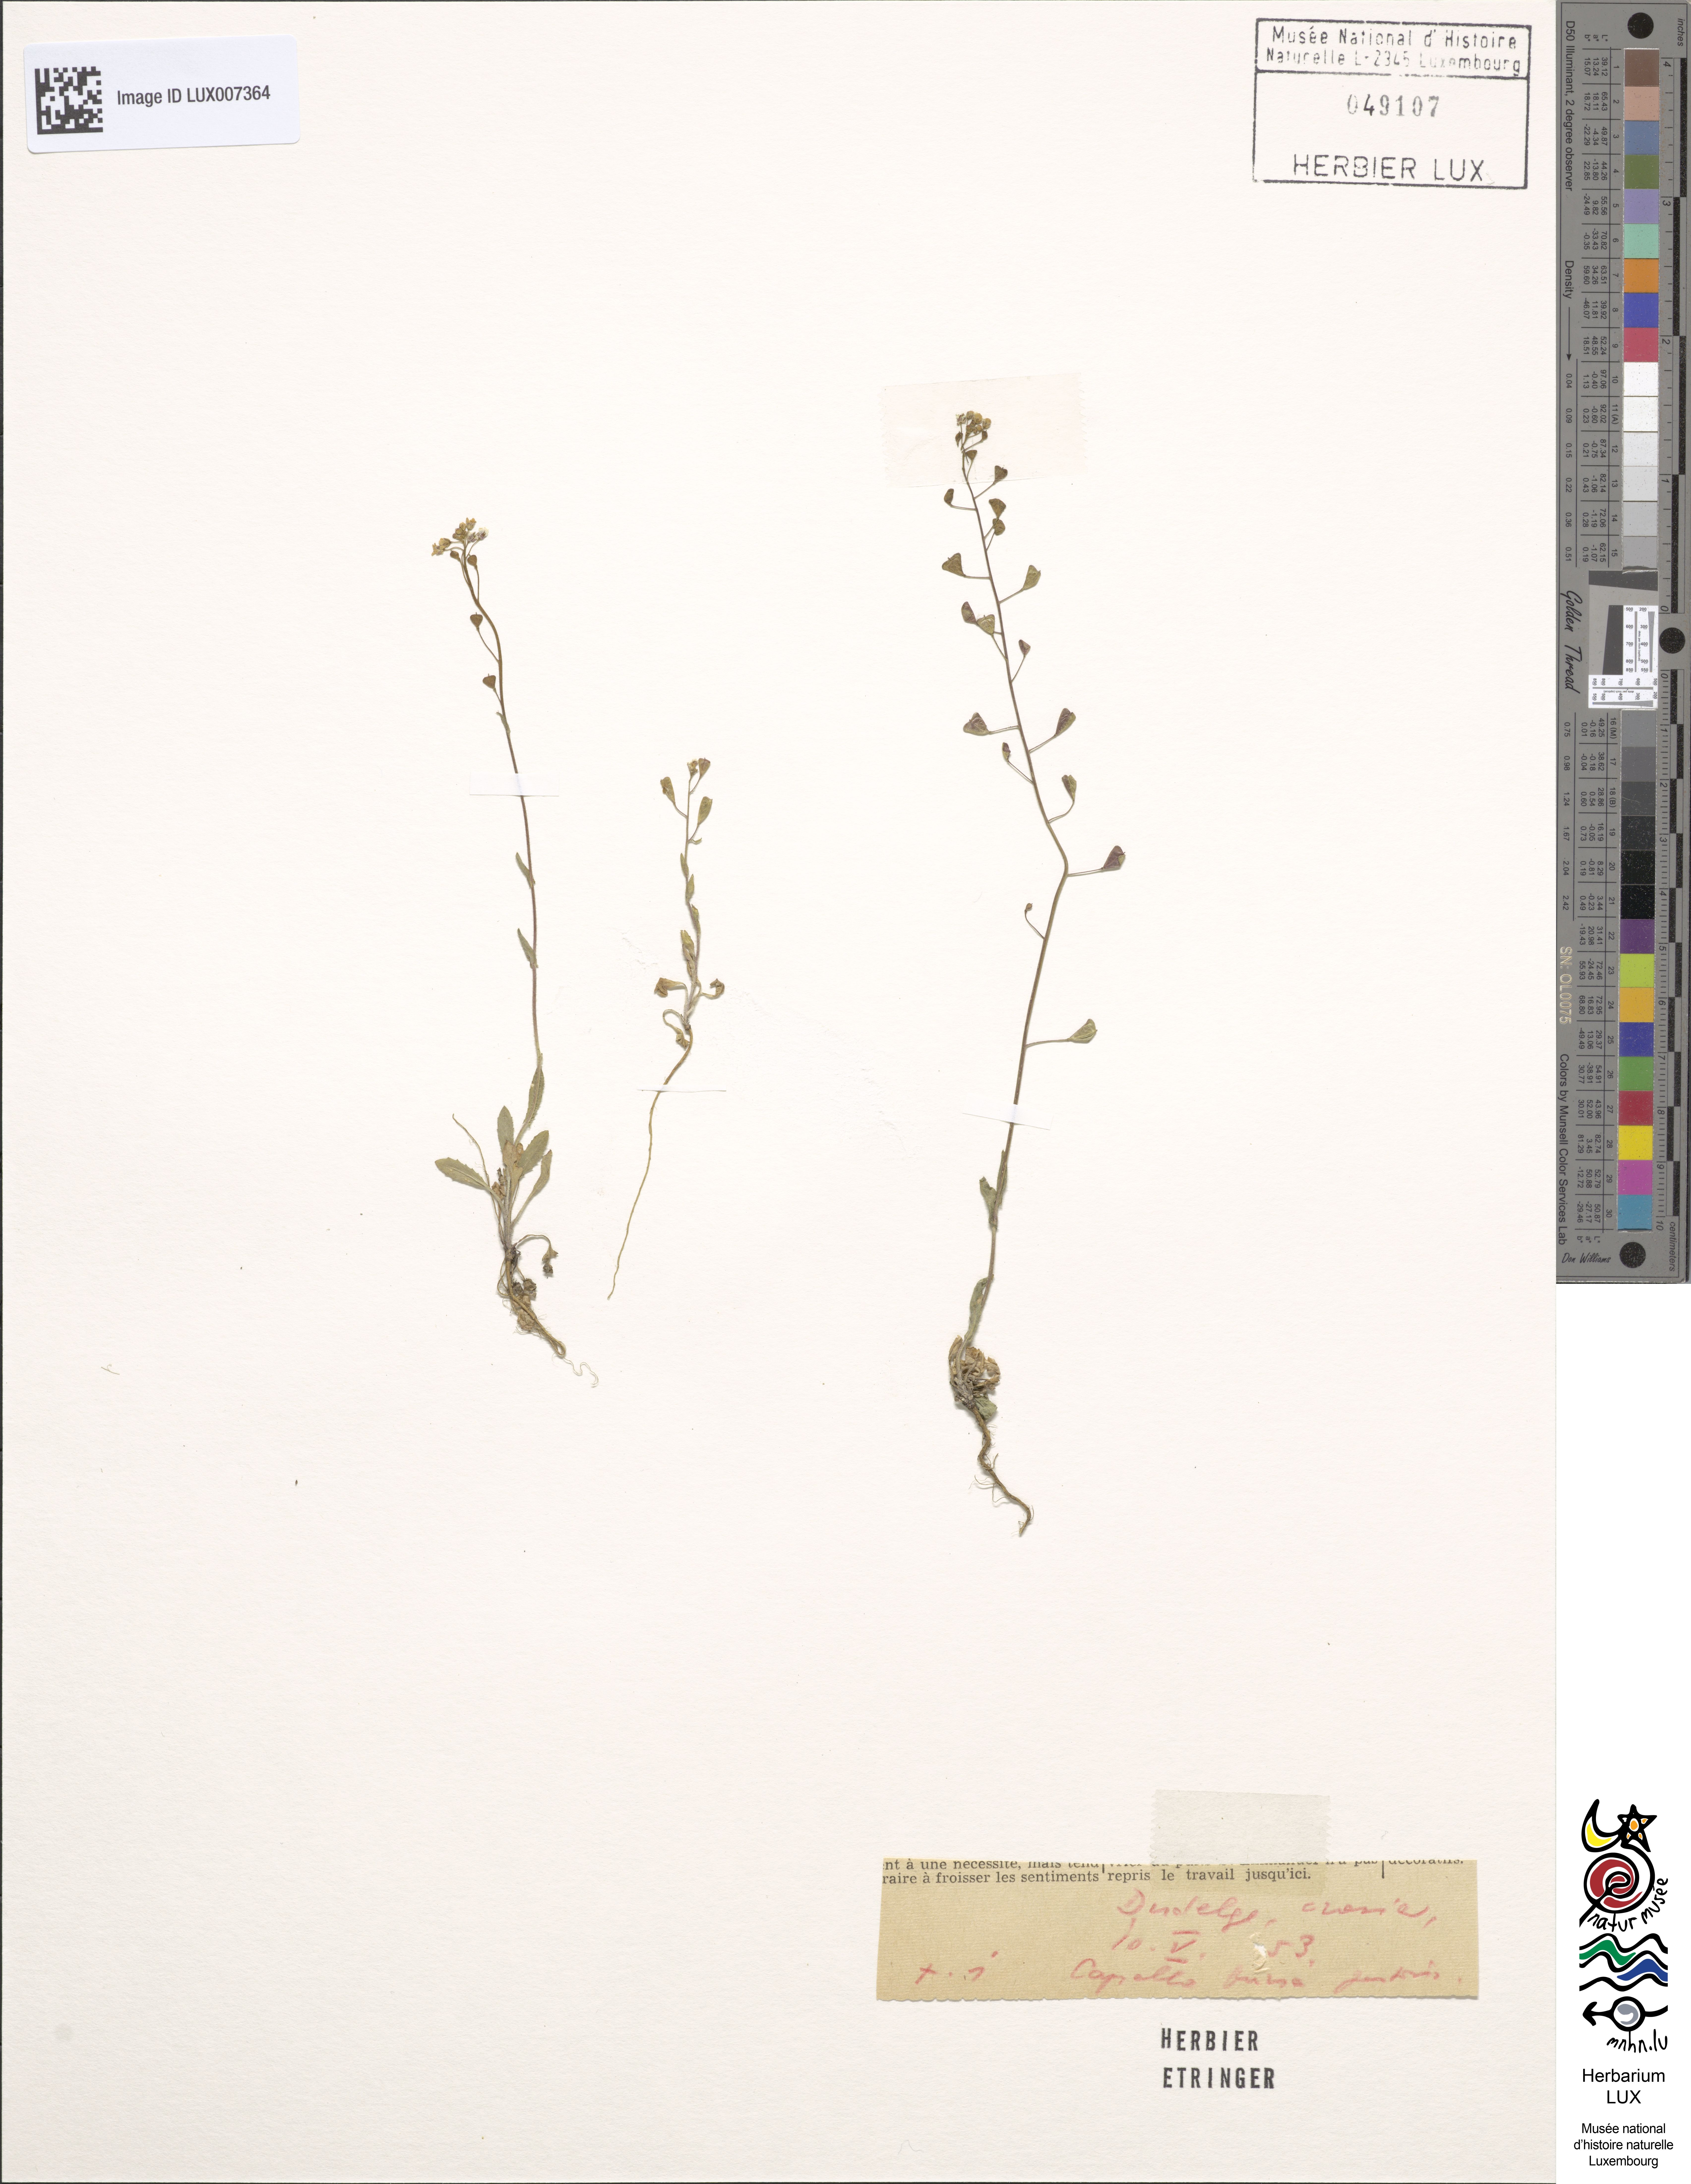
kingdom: Plantae
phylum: Tracheophyta
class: Magnoliopsida
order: Brassicales
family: Brassicaceae
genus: Capsella
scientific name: Capsella bursa-pastoris
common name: Shepherd's purse
